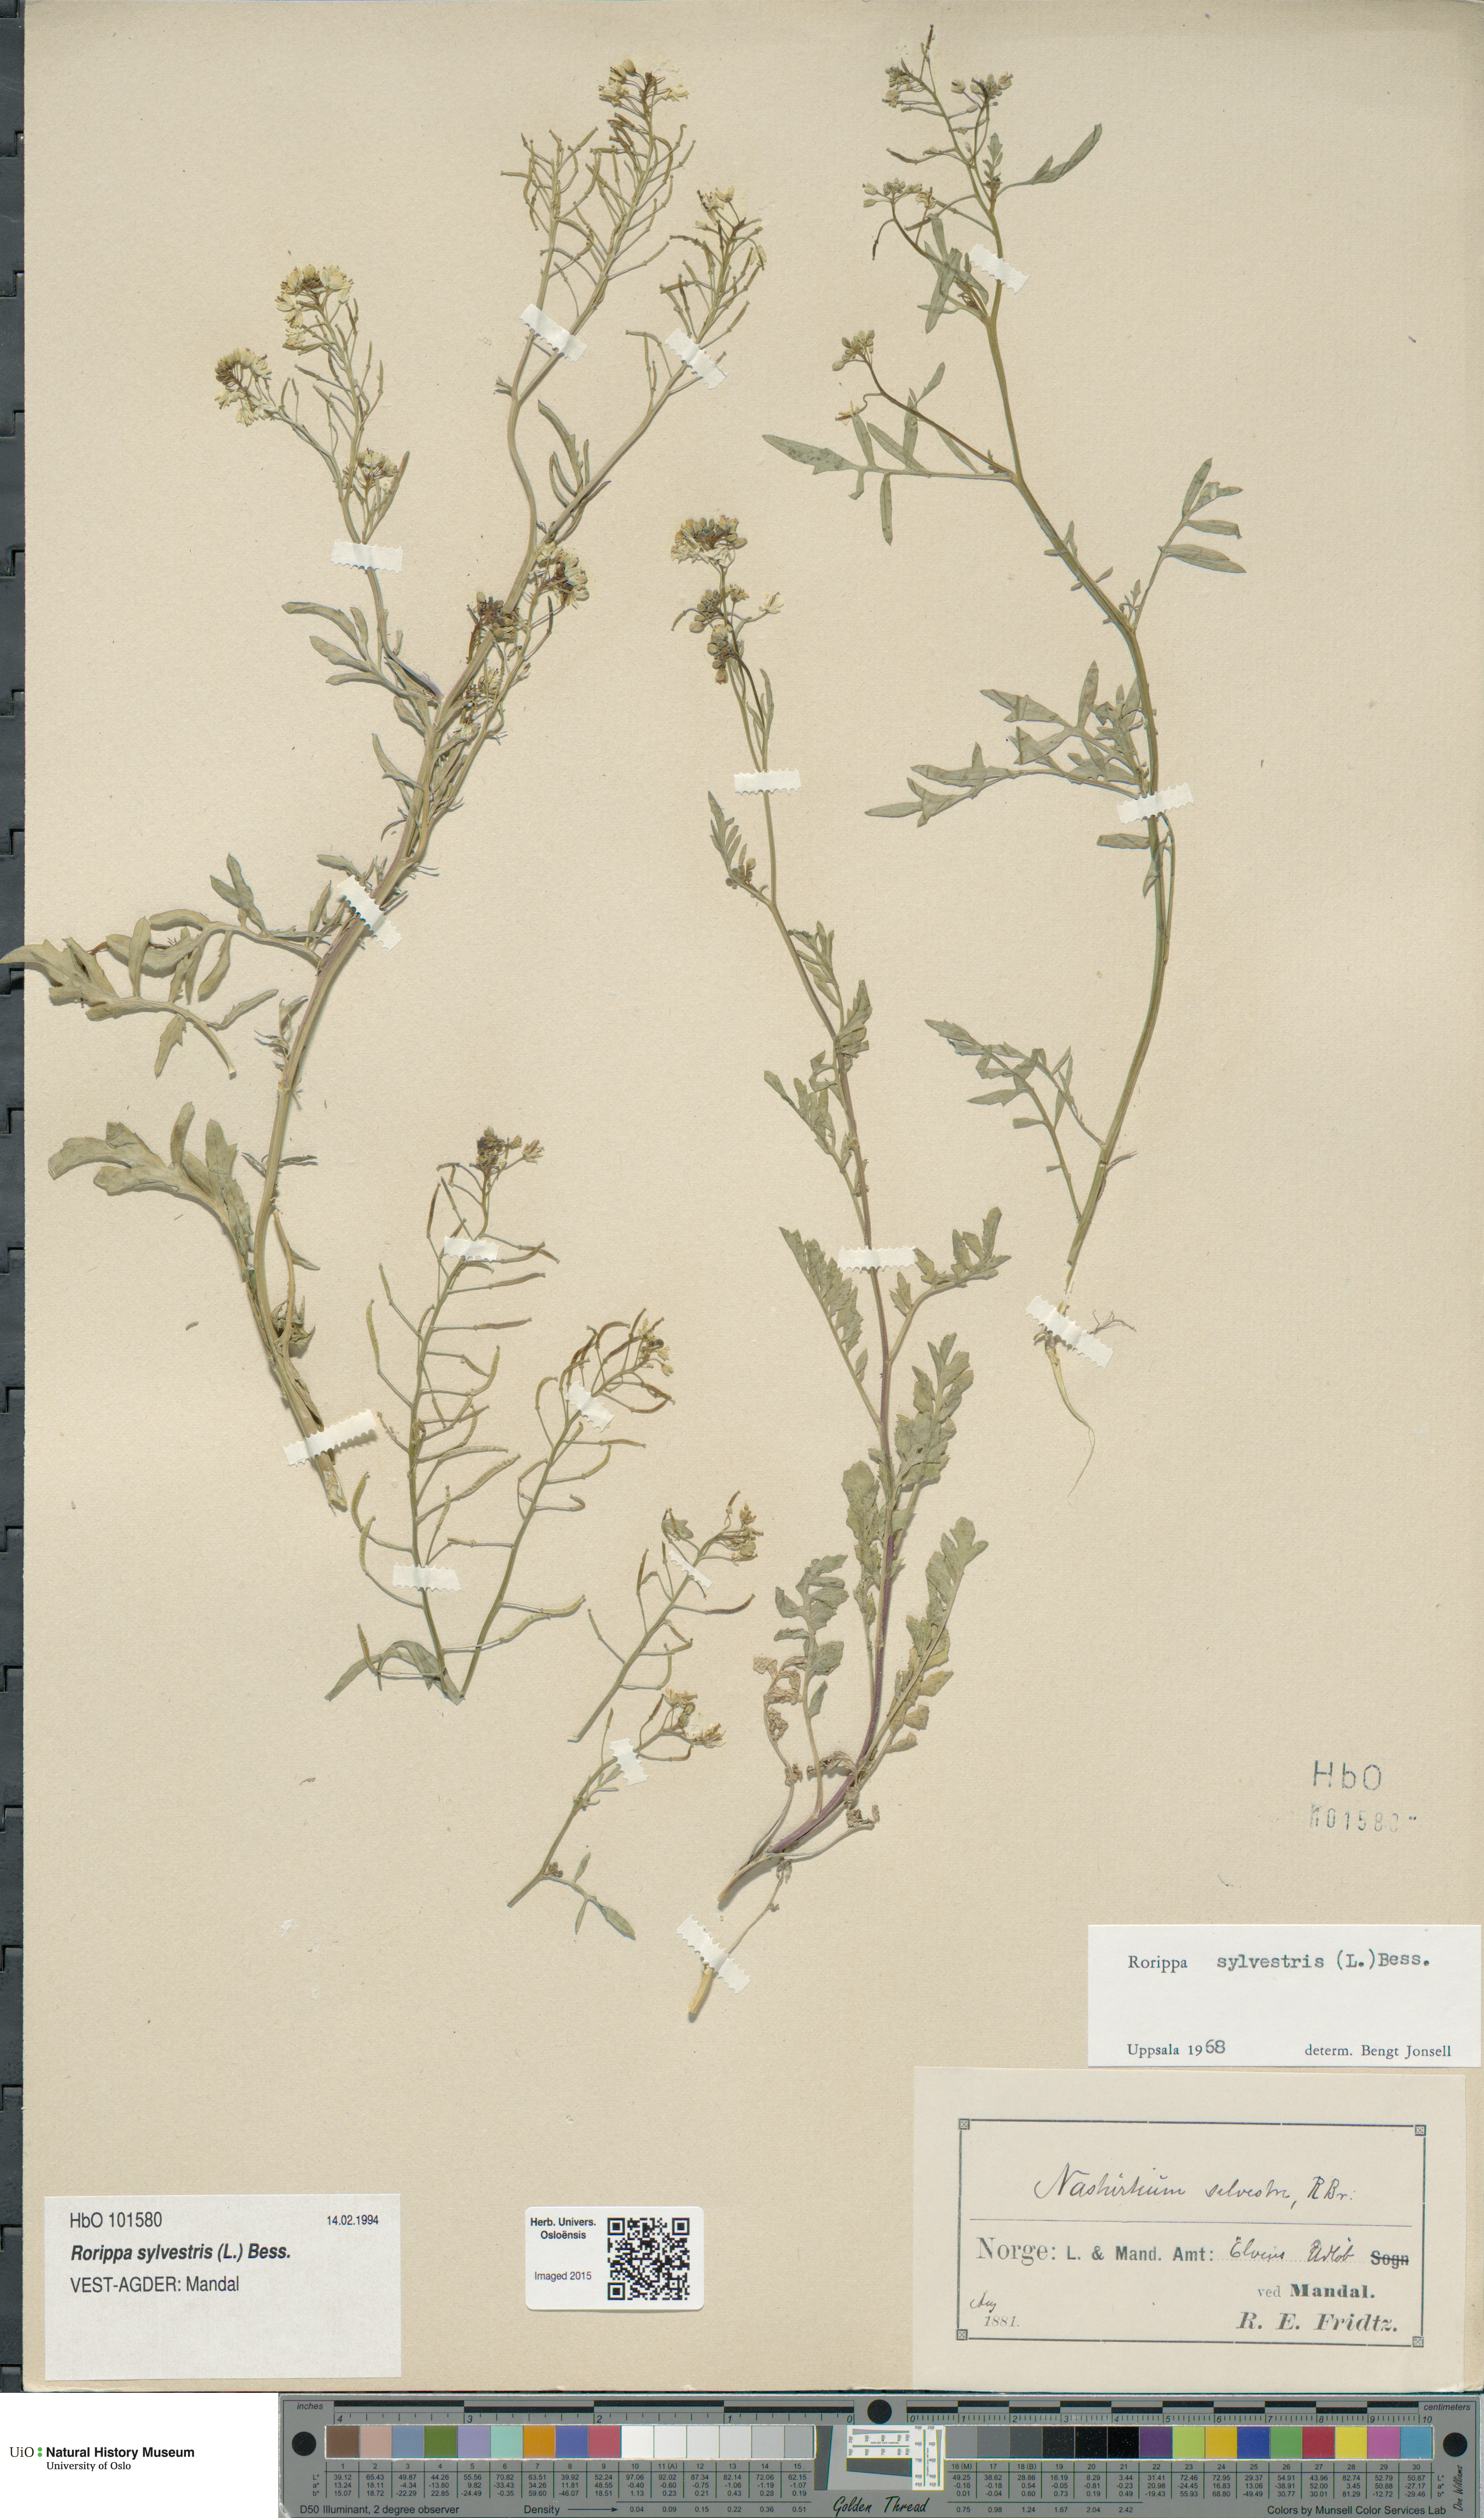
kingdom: Plantae
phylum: Tracheophyta
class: Magnoliopsida
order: Brassicales
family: Brassicaceae
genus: Rorippa
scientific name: Rorippa sylvestris
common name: Creeping yellowcress
